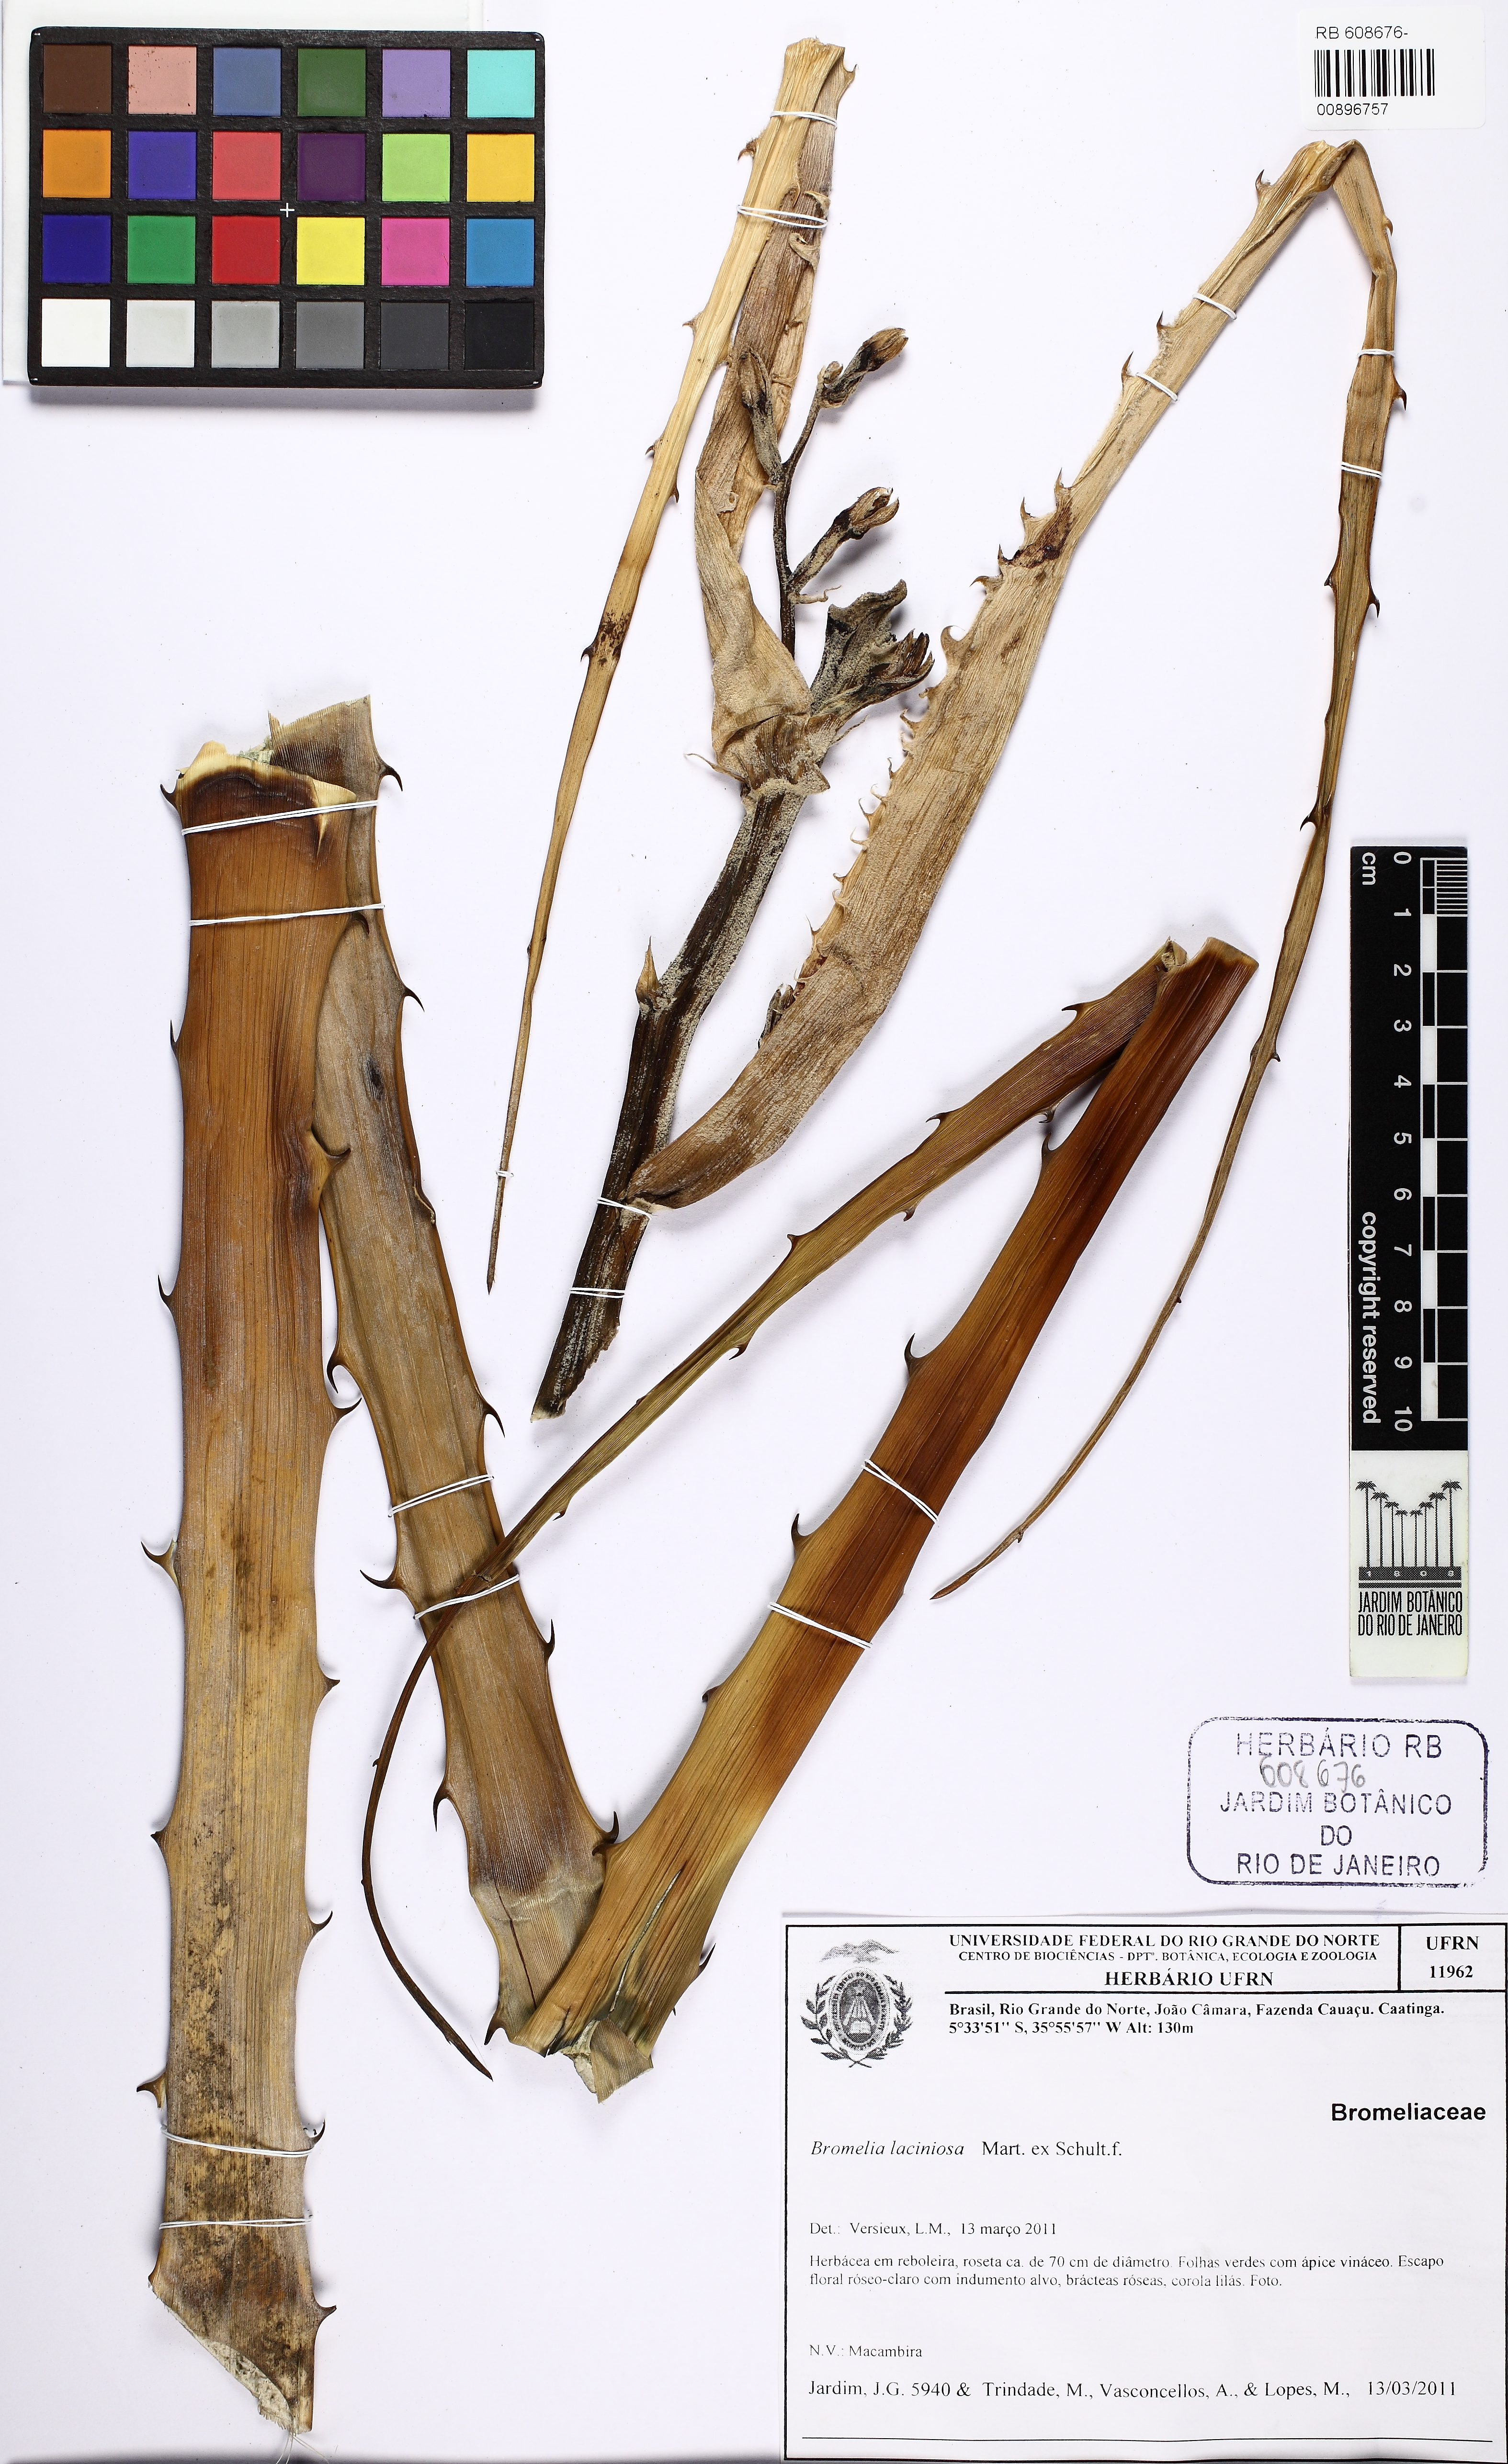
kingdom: Plantae
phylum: Tracheophyta
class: Liliopsida
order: Poales
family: Bromeliaceae
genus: Bromelia
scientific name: Bromelia laciniosa
